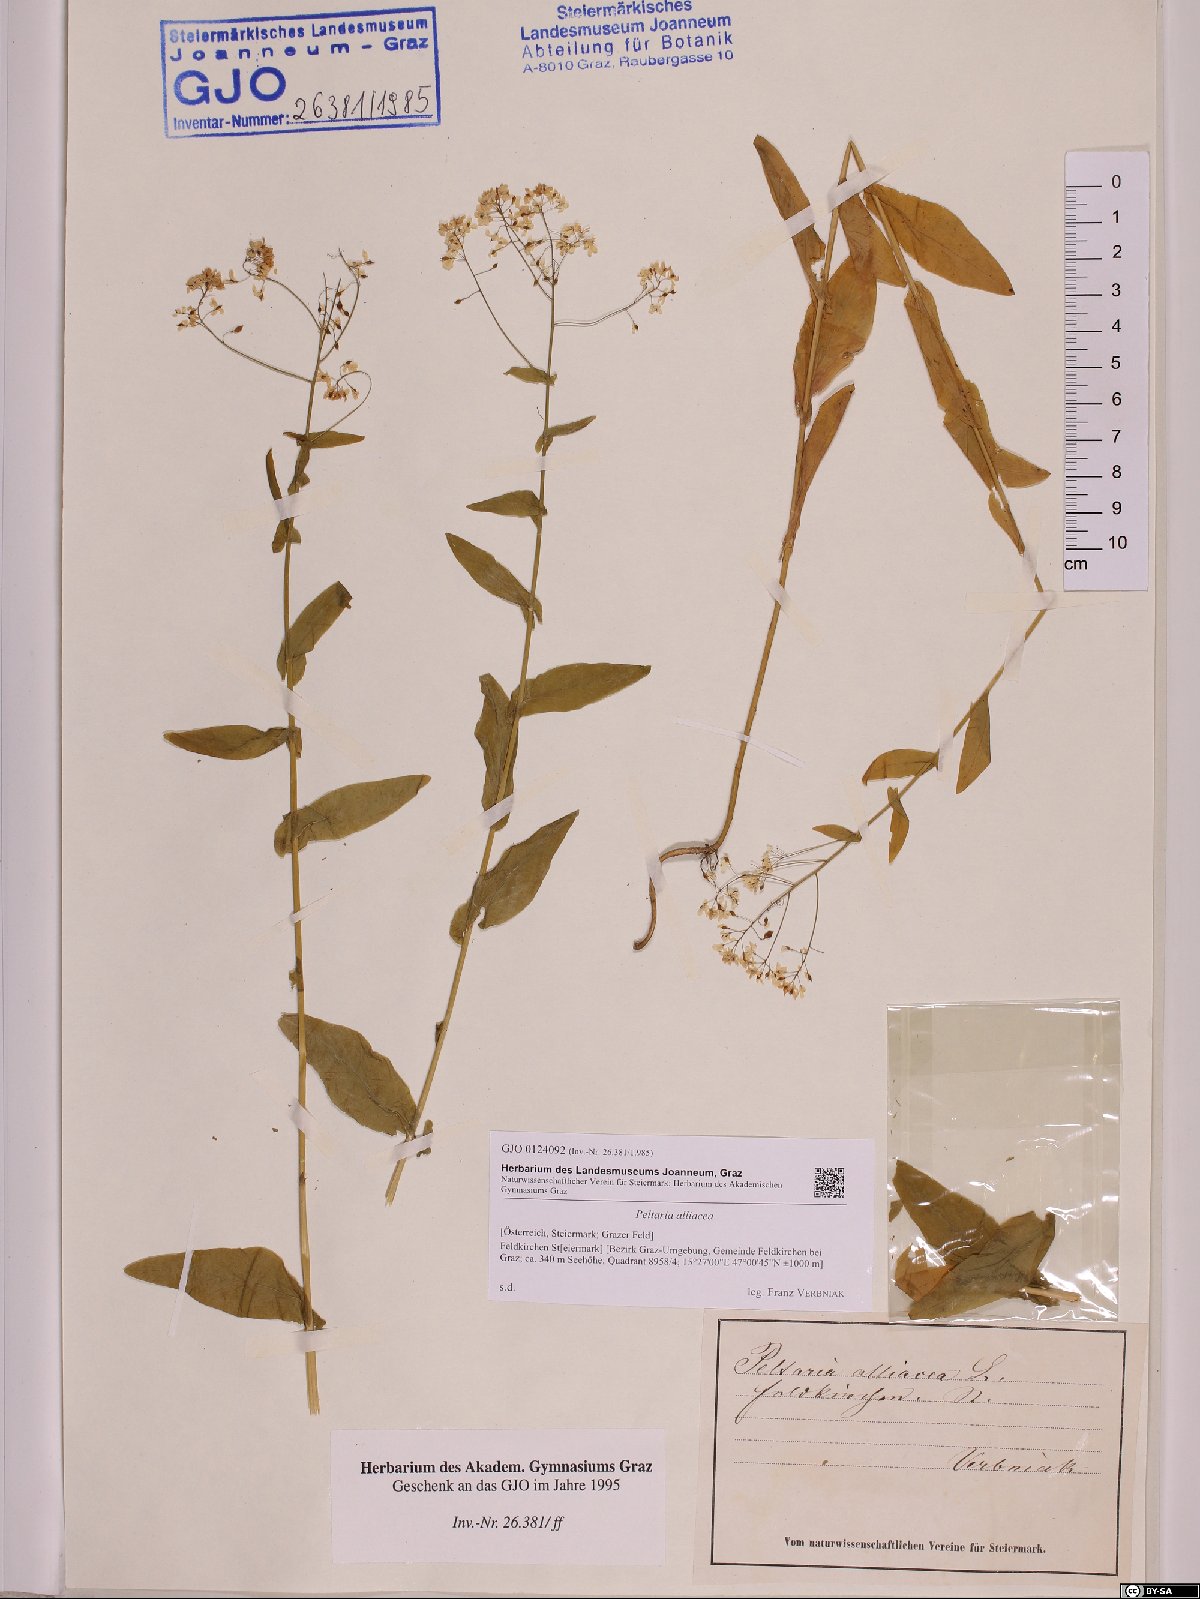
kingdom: Plantae
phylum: Tracheophyta
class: Magnoliopsida
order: Brassicales
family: Brassicaceae
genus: Peltaria
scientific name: Peltaria alliacea
